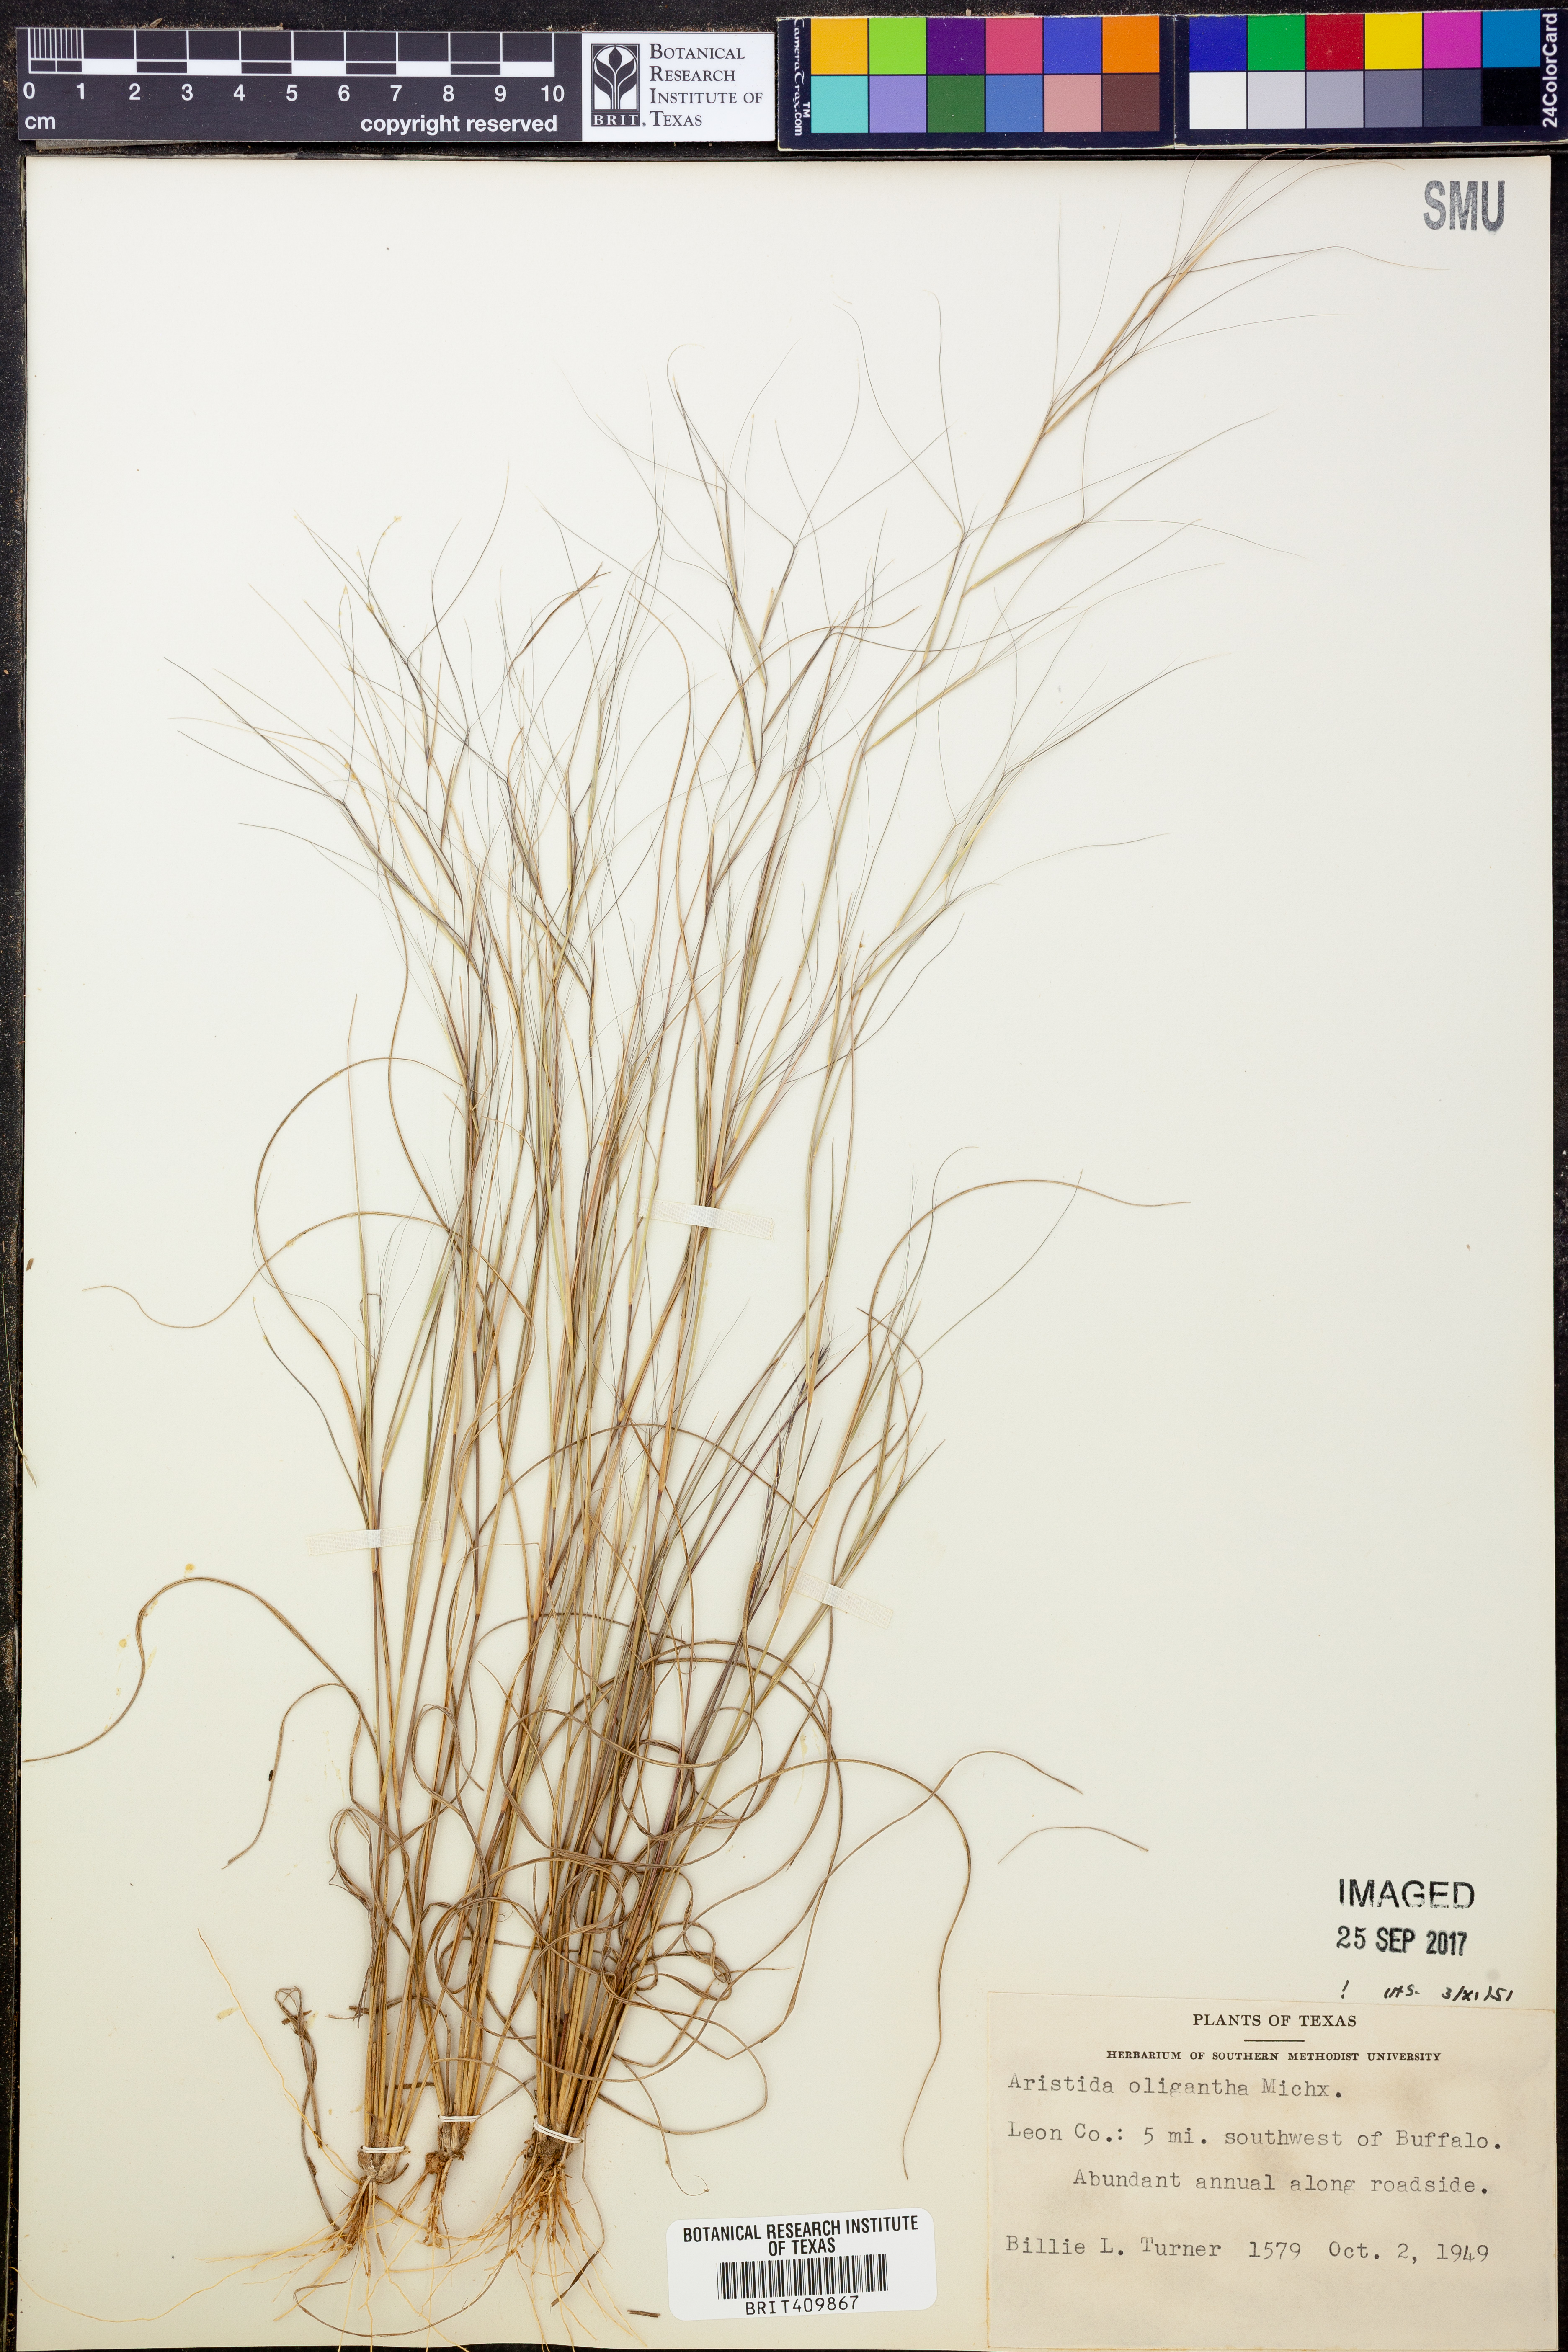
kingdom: Plantae
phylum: Tracheophyta
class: Liliopsida
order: Poales
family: Poaceae
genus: Aristida
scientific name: Aristida oligantha
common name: Few-flowered aristida
